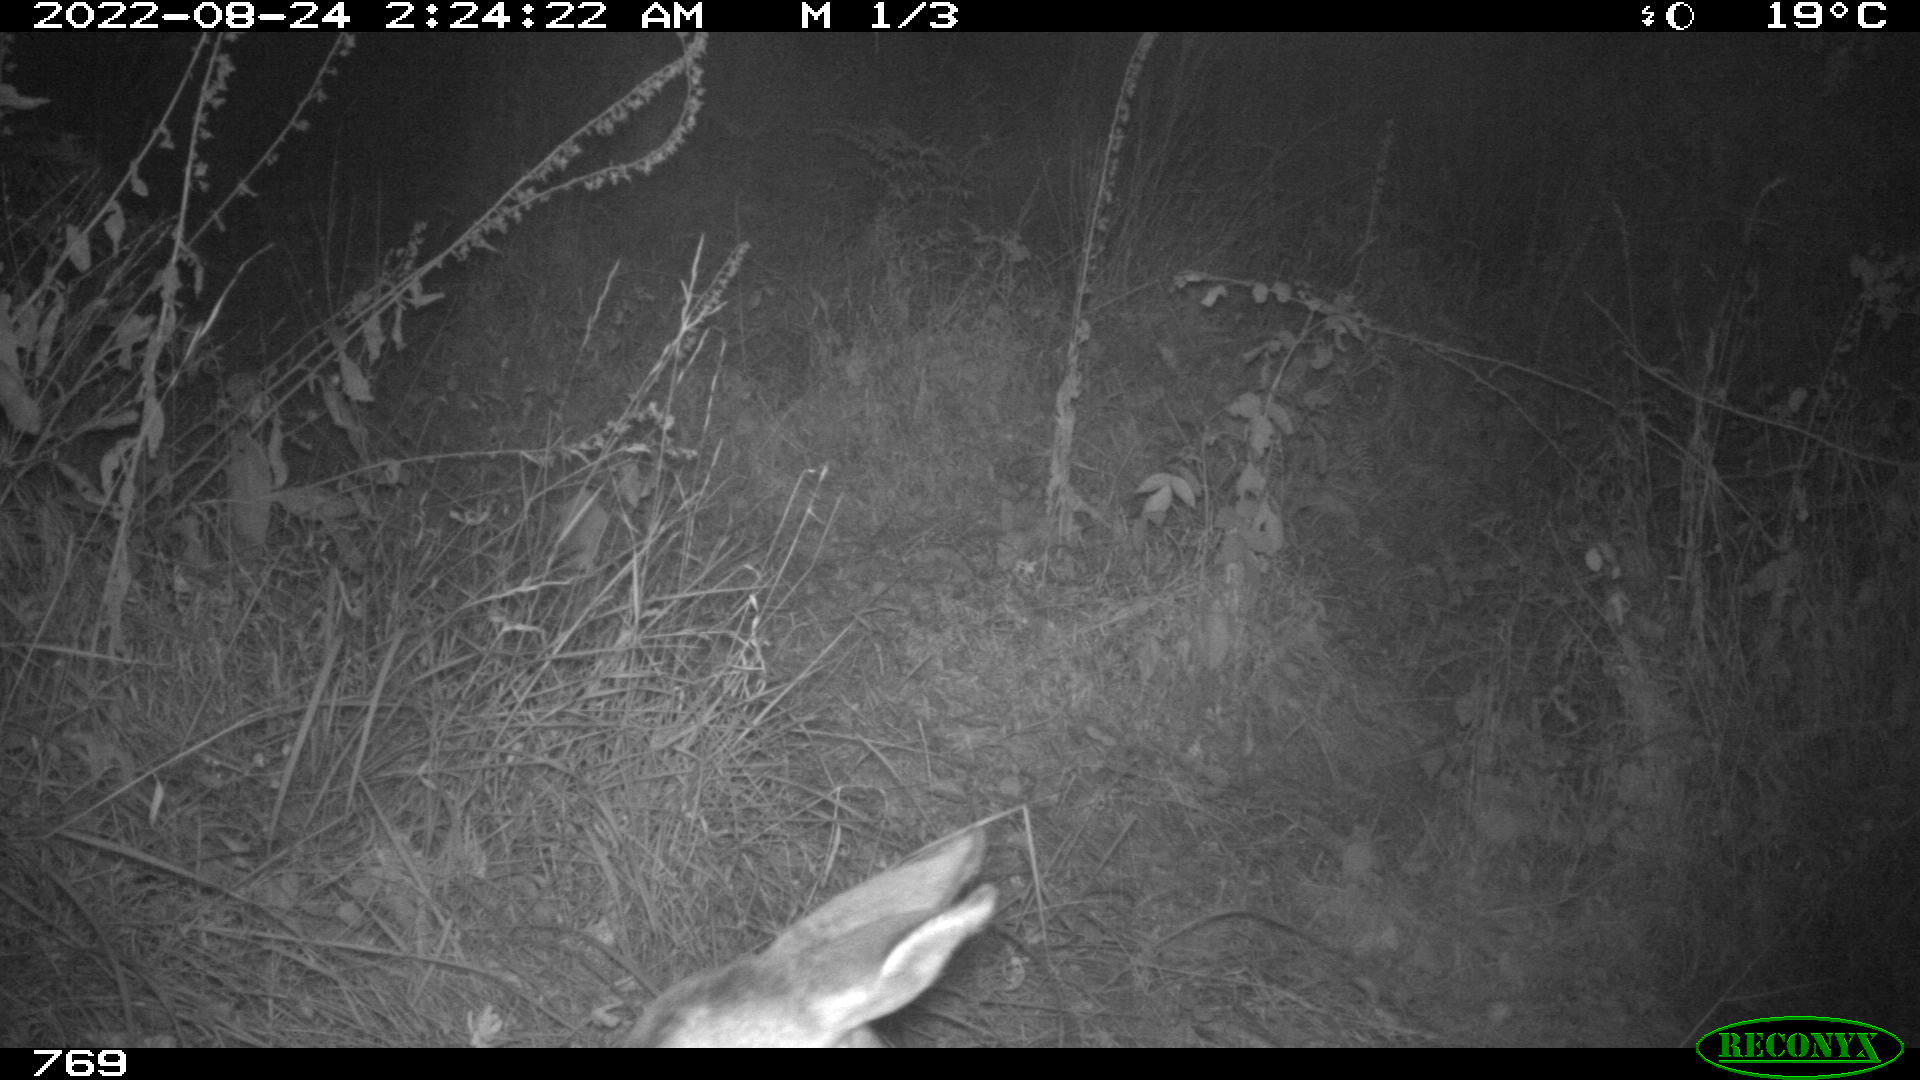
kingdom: Animalia
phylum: Chordata
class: Mammalia
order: Artiodactyla
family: Cervidae
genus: Capreolus
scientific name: Capreolus capreolus
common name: Western roe deer
